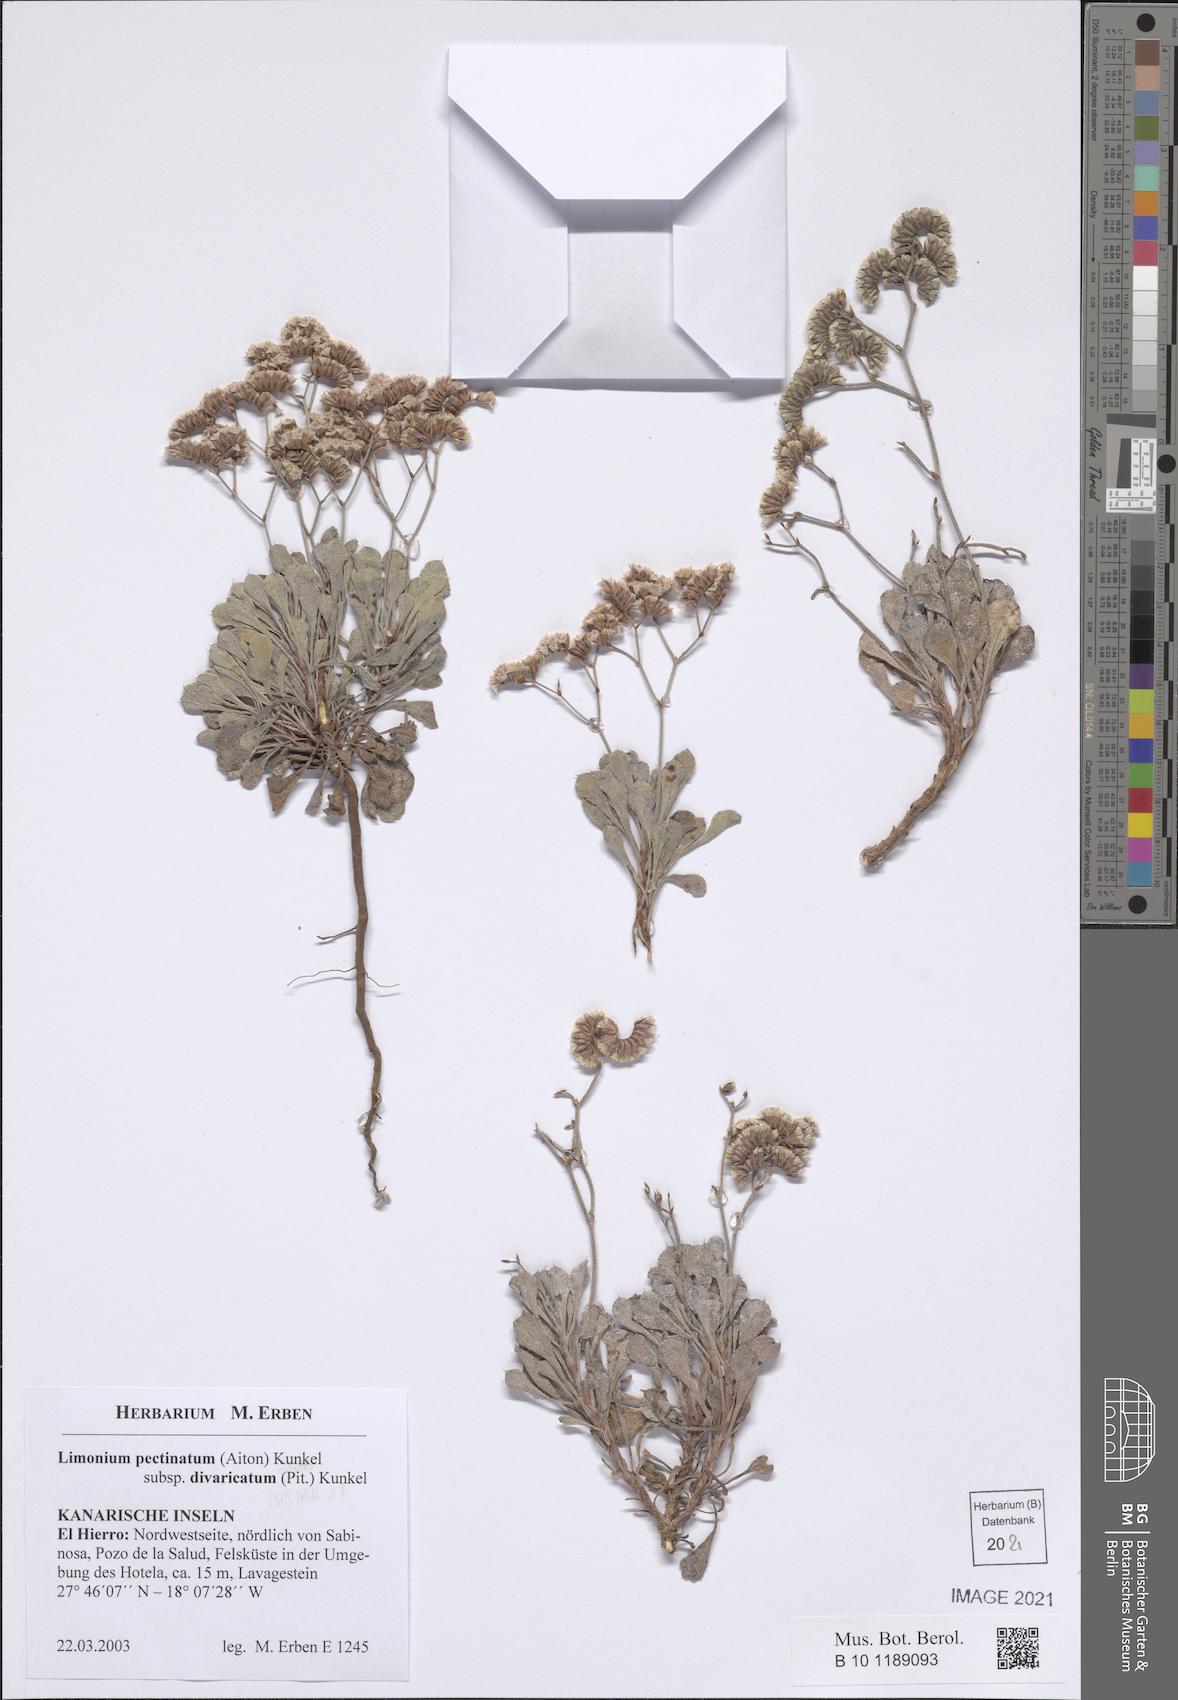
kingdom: Plantae
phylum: Tracheophyta
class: Magnoliopsida
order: Caryophyllales
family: Plumbaginaceae
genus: Limonium
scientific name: Limonium pectinatum
